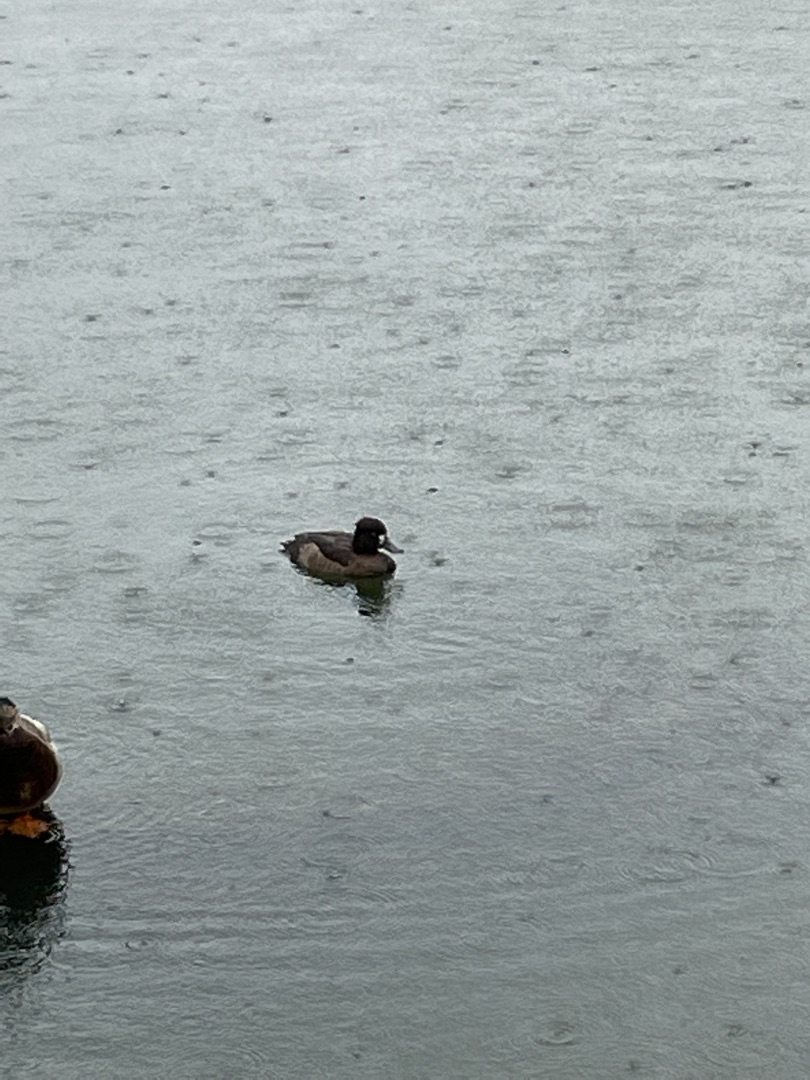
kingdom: Animalia
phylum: Chordata
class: Aves
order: Anseriformes
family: Anatidae
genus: Aythya
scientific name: Aythya fuligula
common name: Troldand
